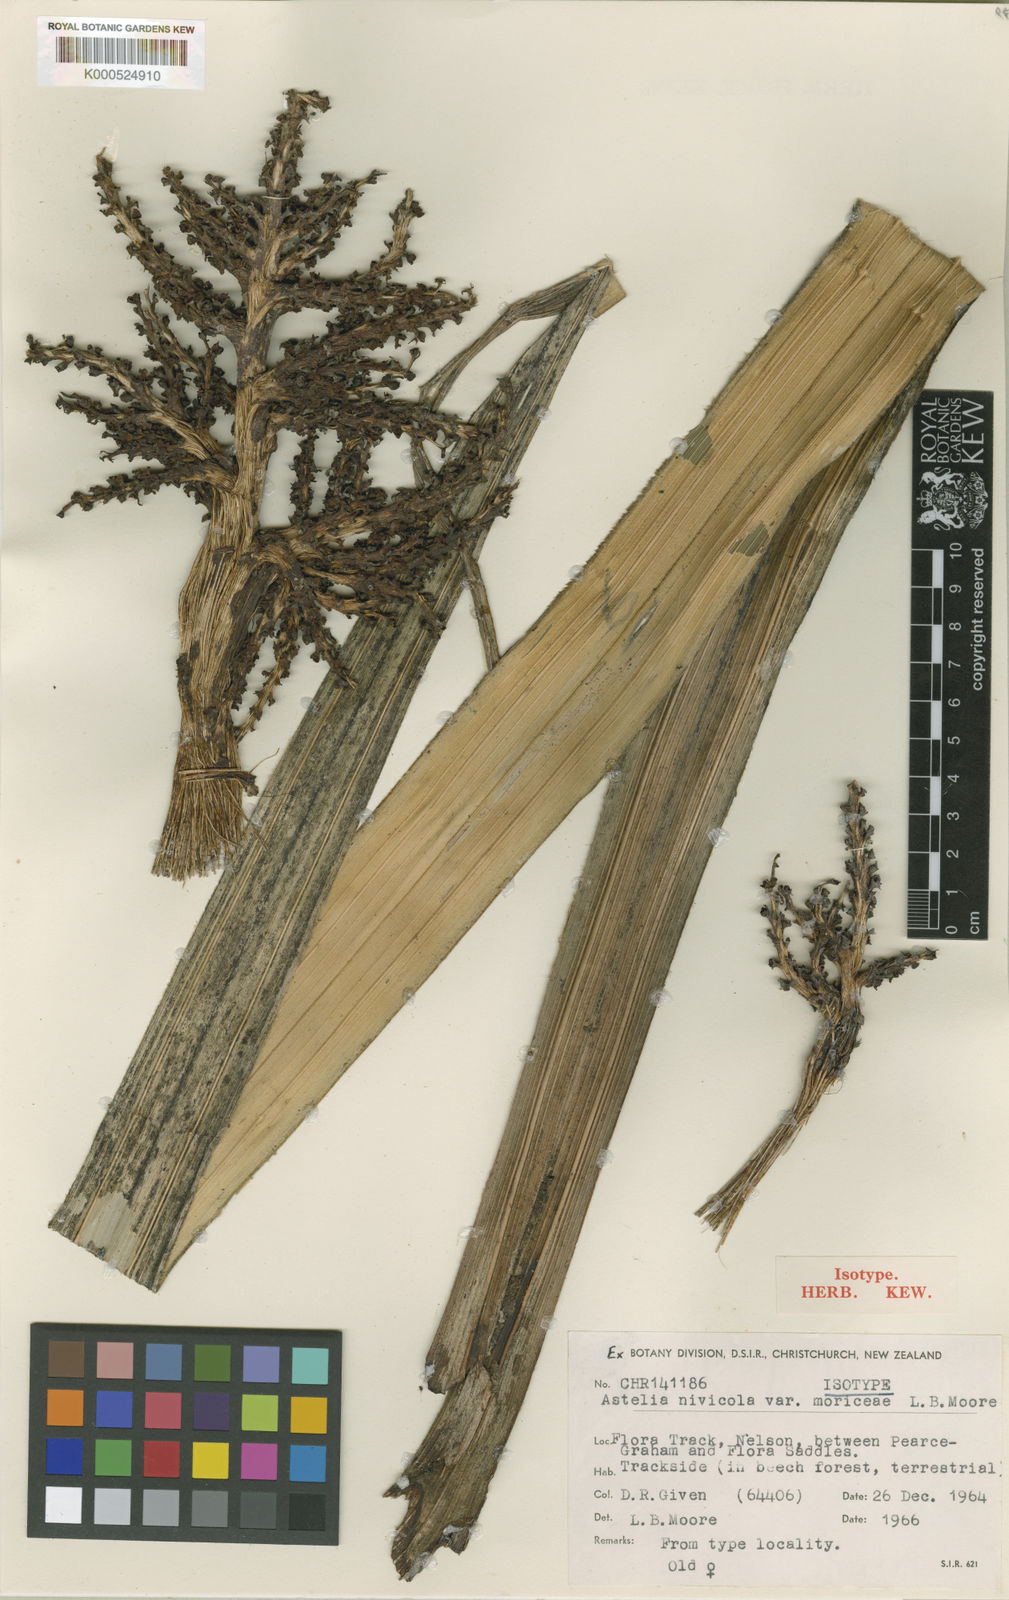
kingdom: Plantae
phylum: Tracheophyta
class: Liliopsida
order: Asparagales
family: Asteliaceae
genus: Astelia
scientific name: Astelia nivicola
